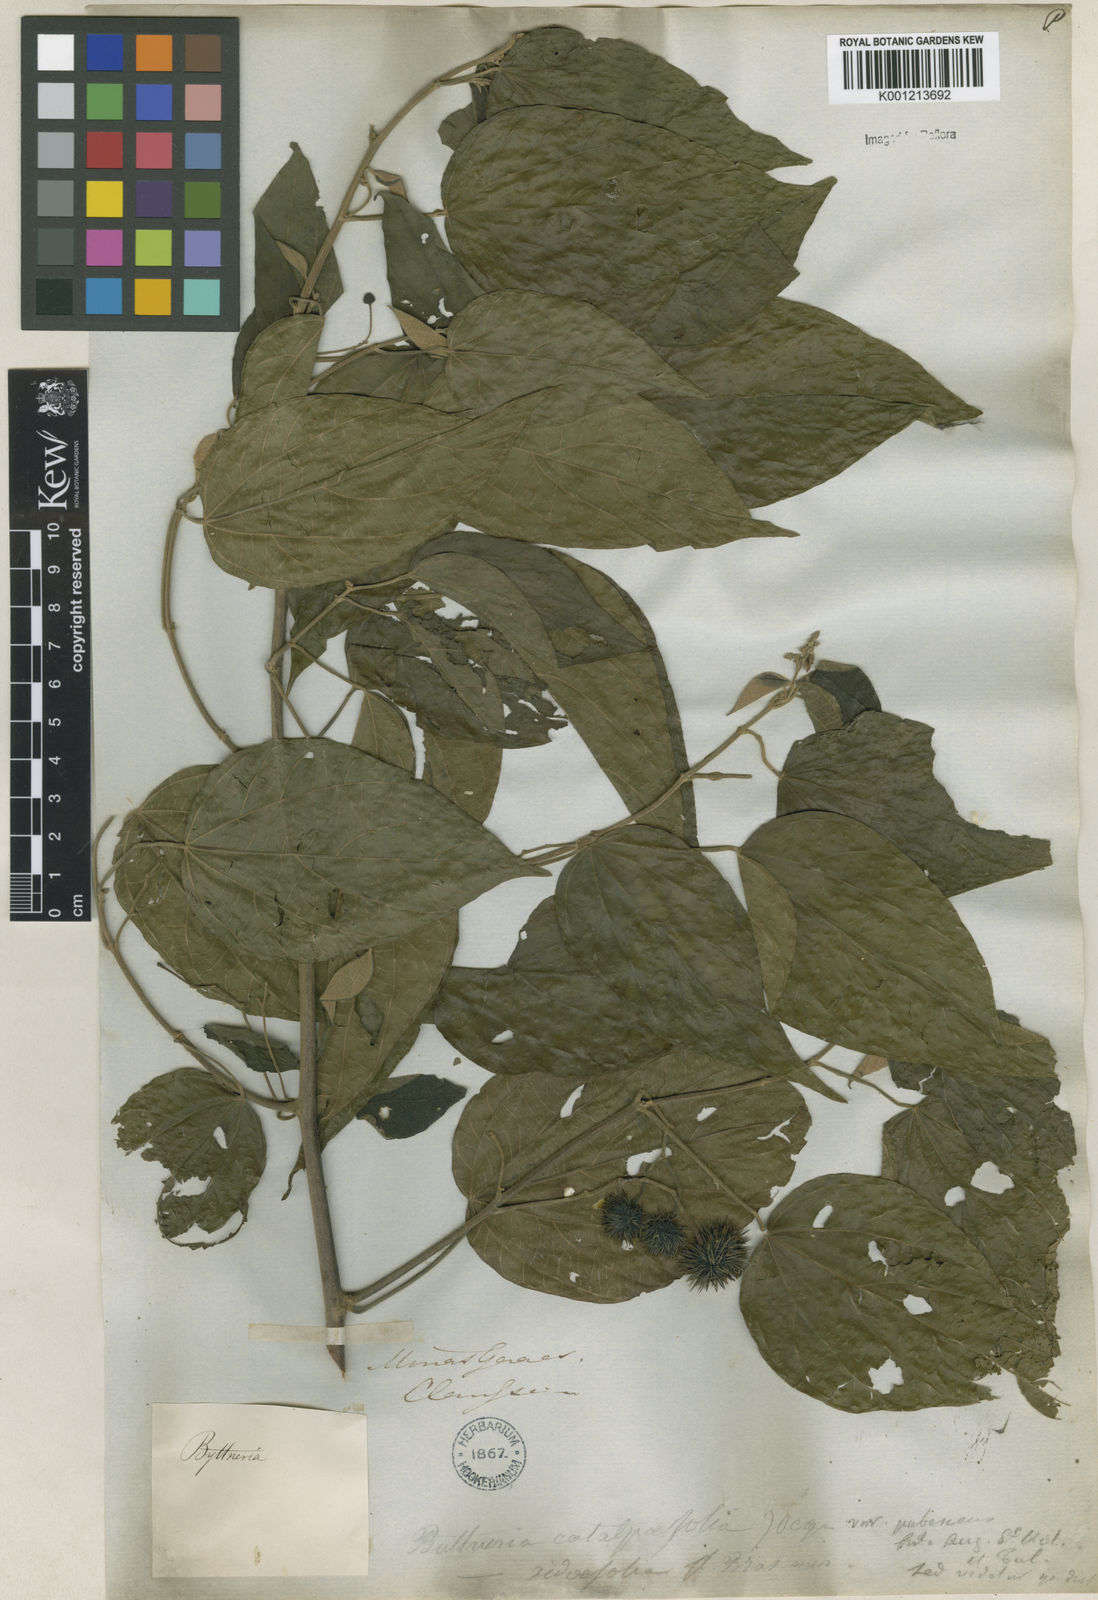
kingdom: Plantae
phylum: Tracheophyta
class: Magnoliopsida
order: Malvales
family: Malvaceae
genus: Byttneria
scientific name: Byttneria catalpifolia
